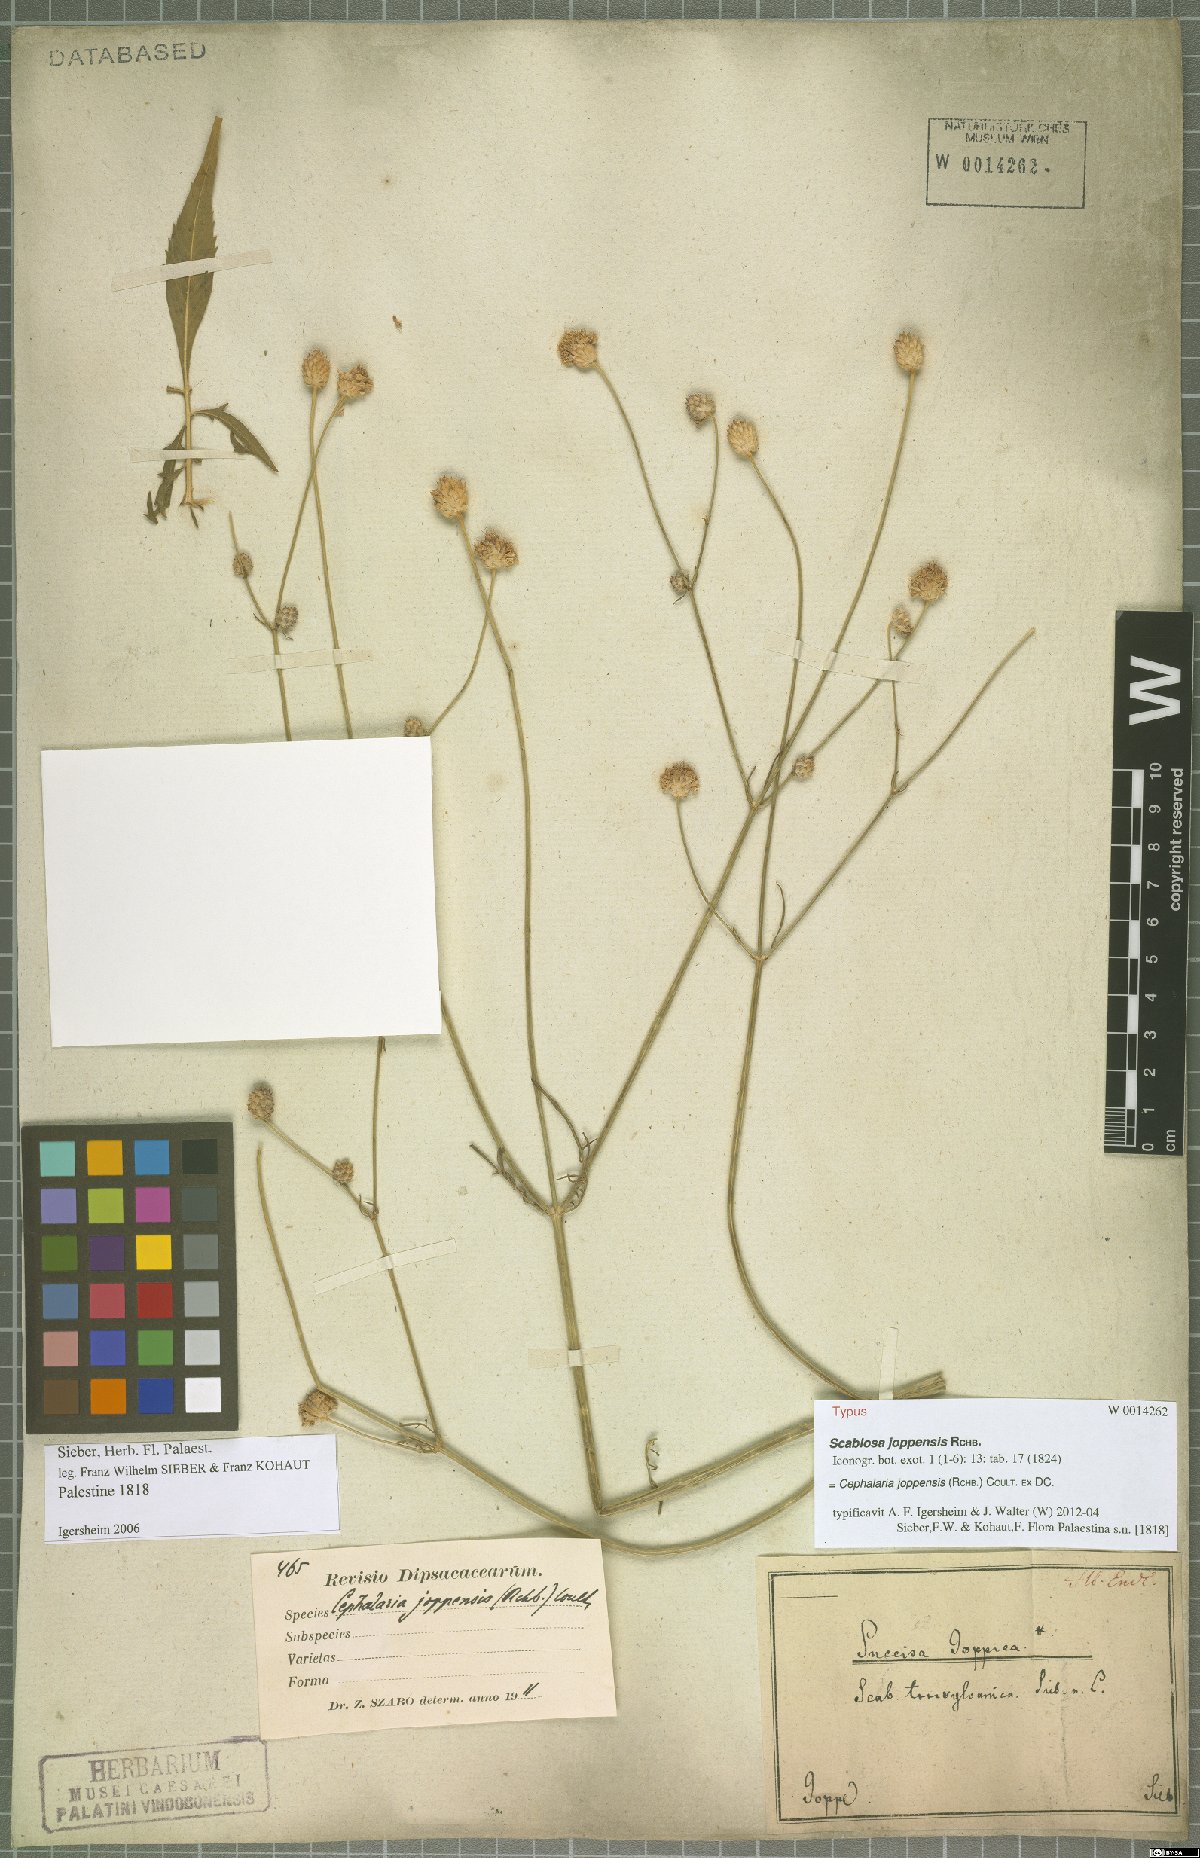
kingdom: Plantae
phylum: Tracheophyta
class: Magnoliopsida
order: Dipsacales
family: Caprifoliaceae
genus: Cephalaria
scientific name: Cephalaria joppensis
